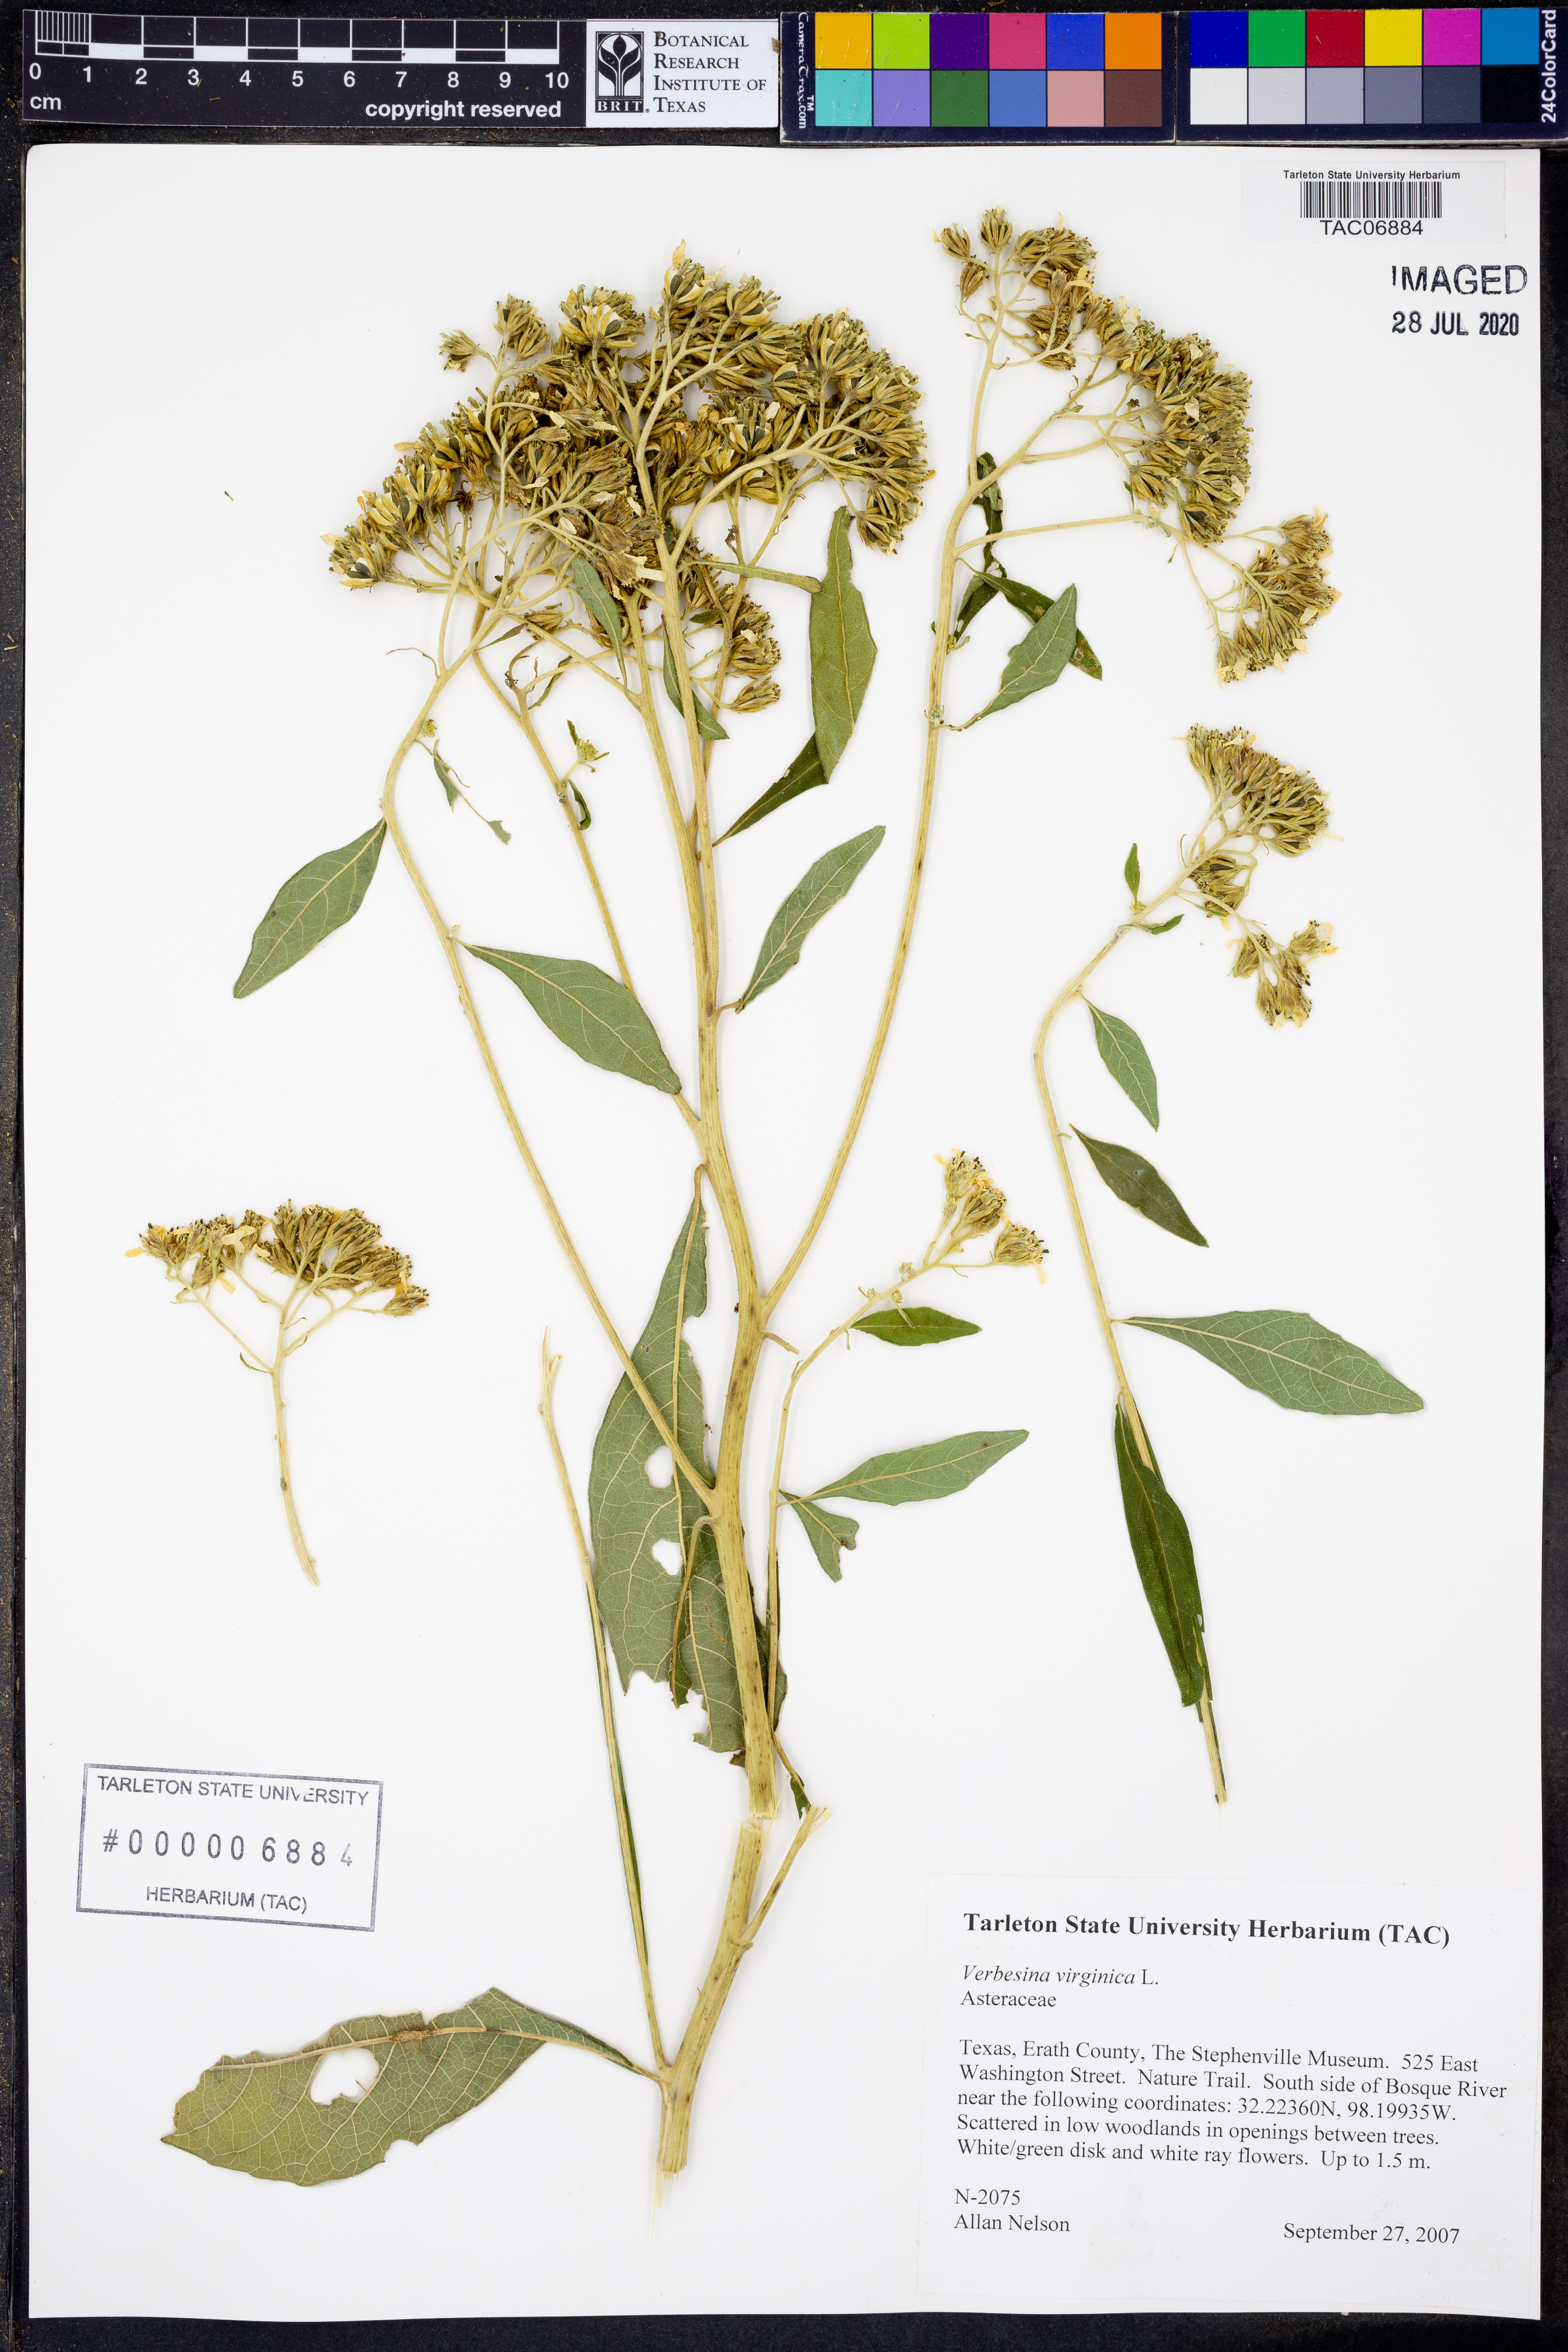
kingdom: Plantae
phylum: Tracheophyta
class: Magnoliopsida
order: Asterales
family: Asteraceae
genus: Verbesina
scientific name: Verbesina virginica
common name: Frostweed
